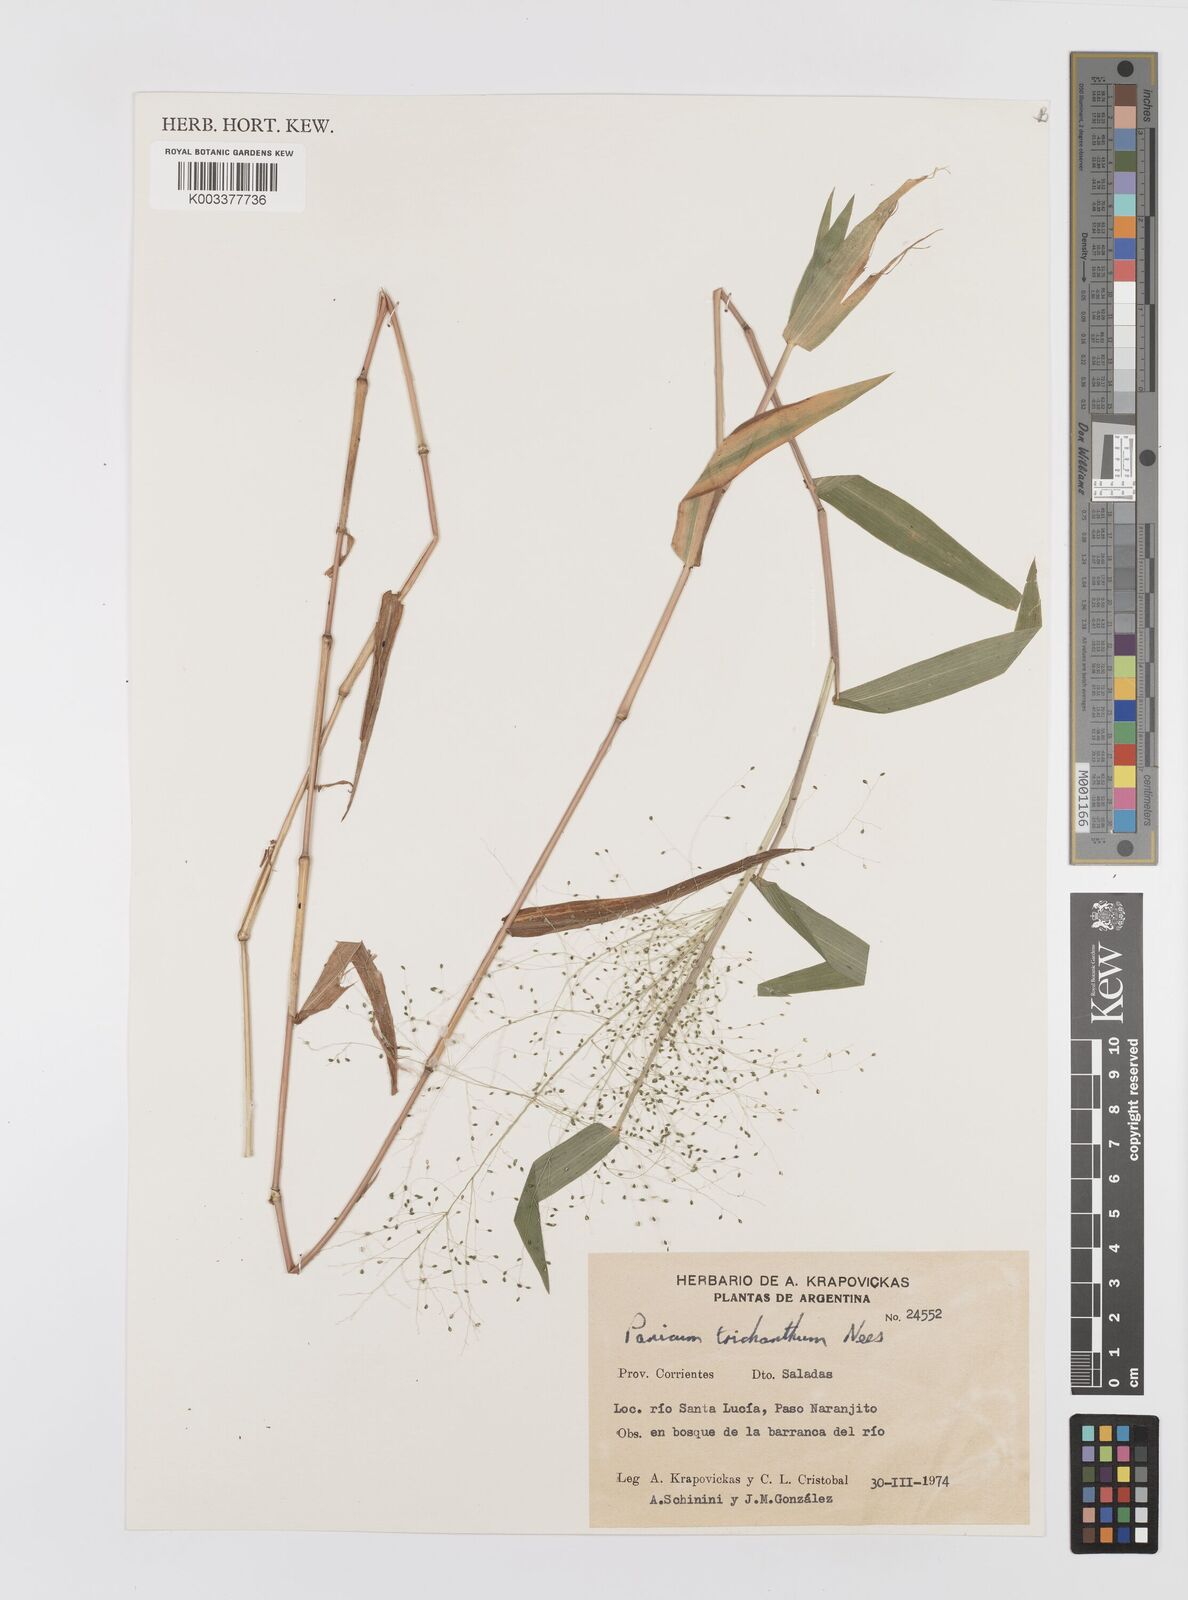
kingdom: Plantae
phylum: Tracheophyta
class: Liliopsida
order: Poales
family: Poaceae
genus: Panicum
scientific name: Panicum trichanthum
